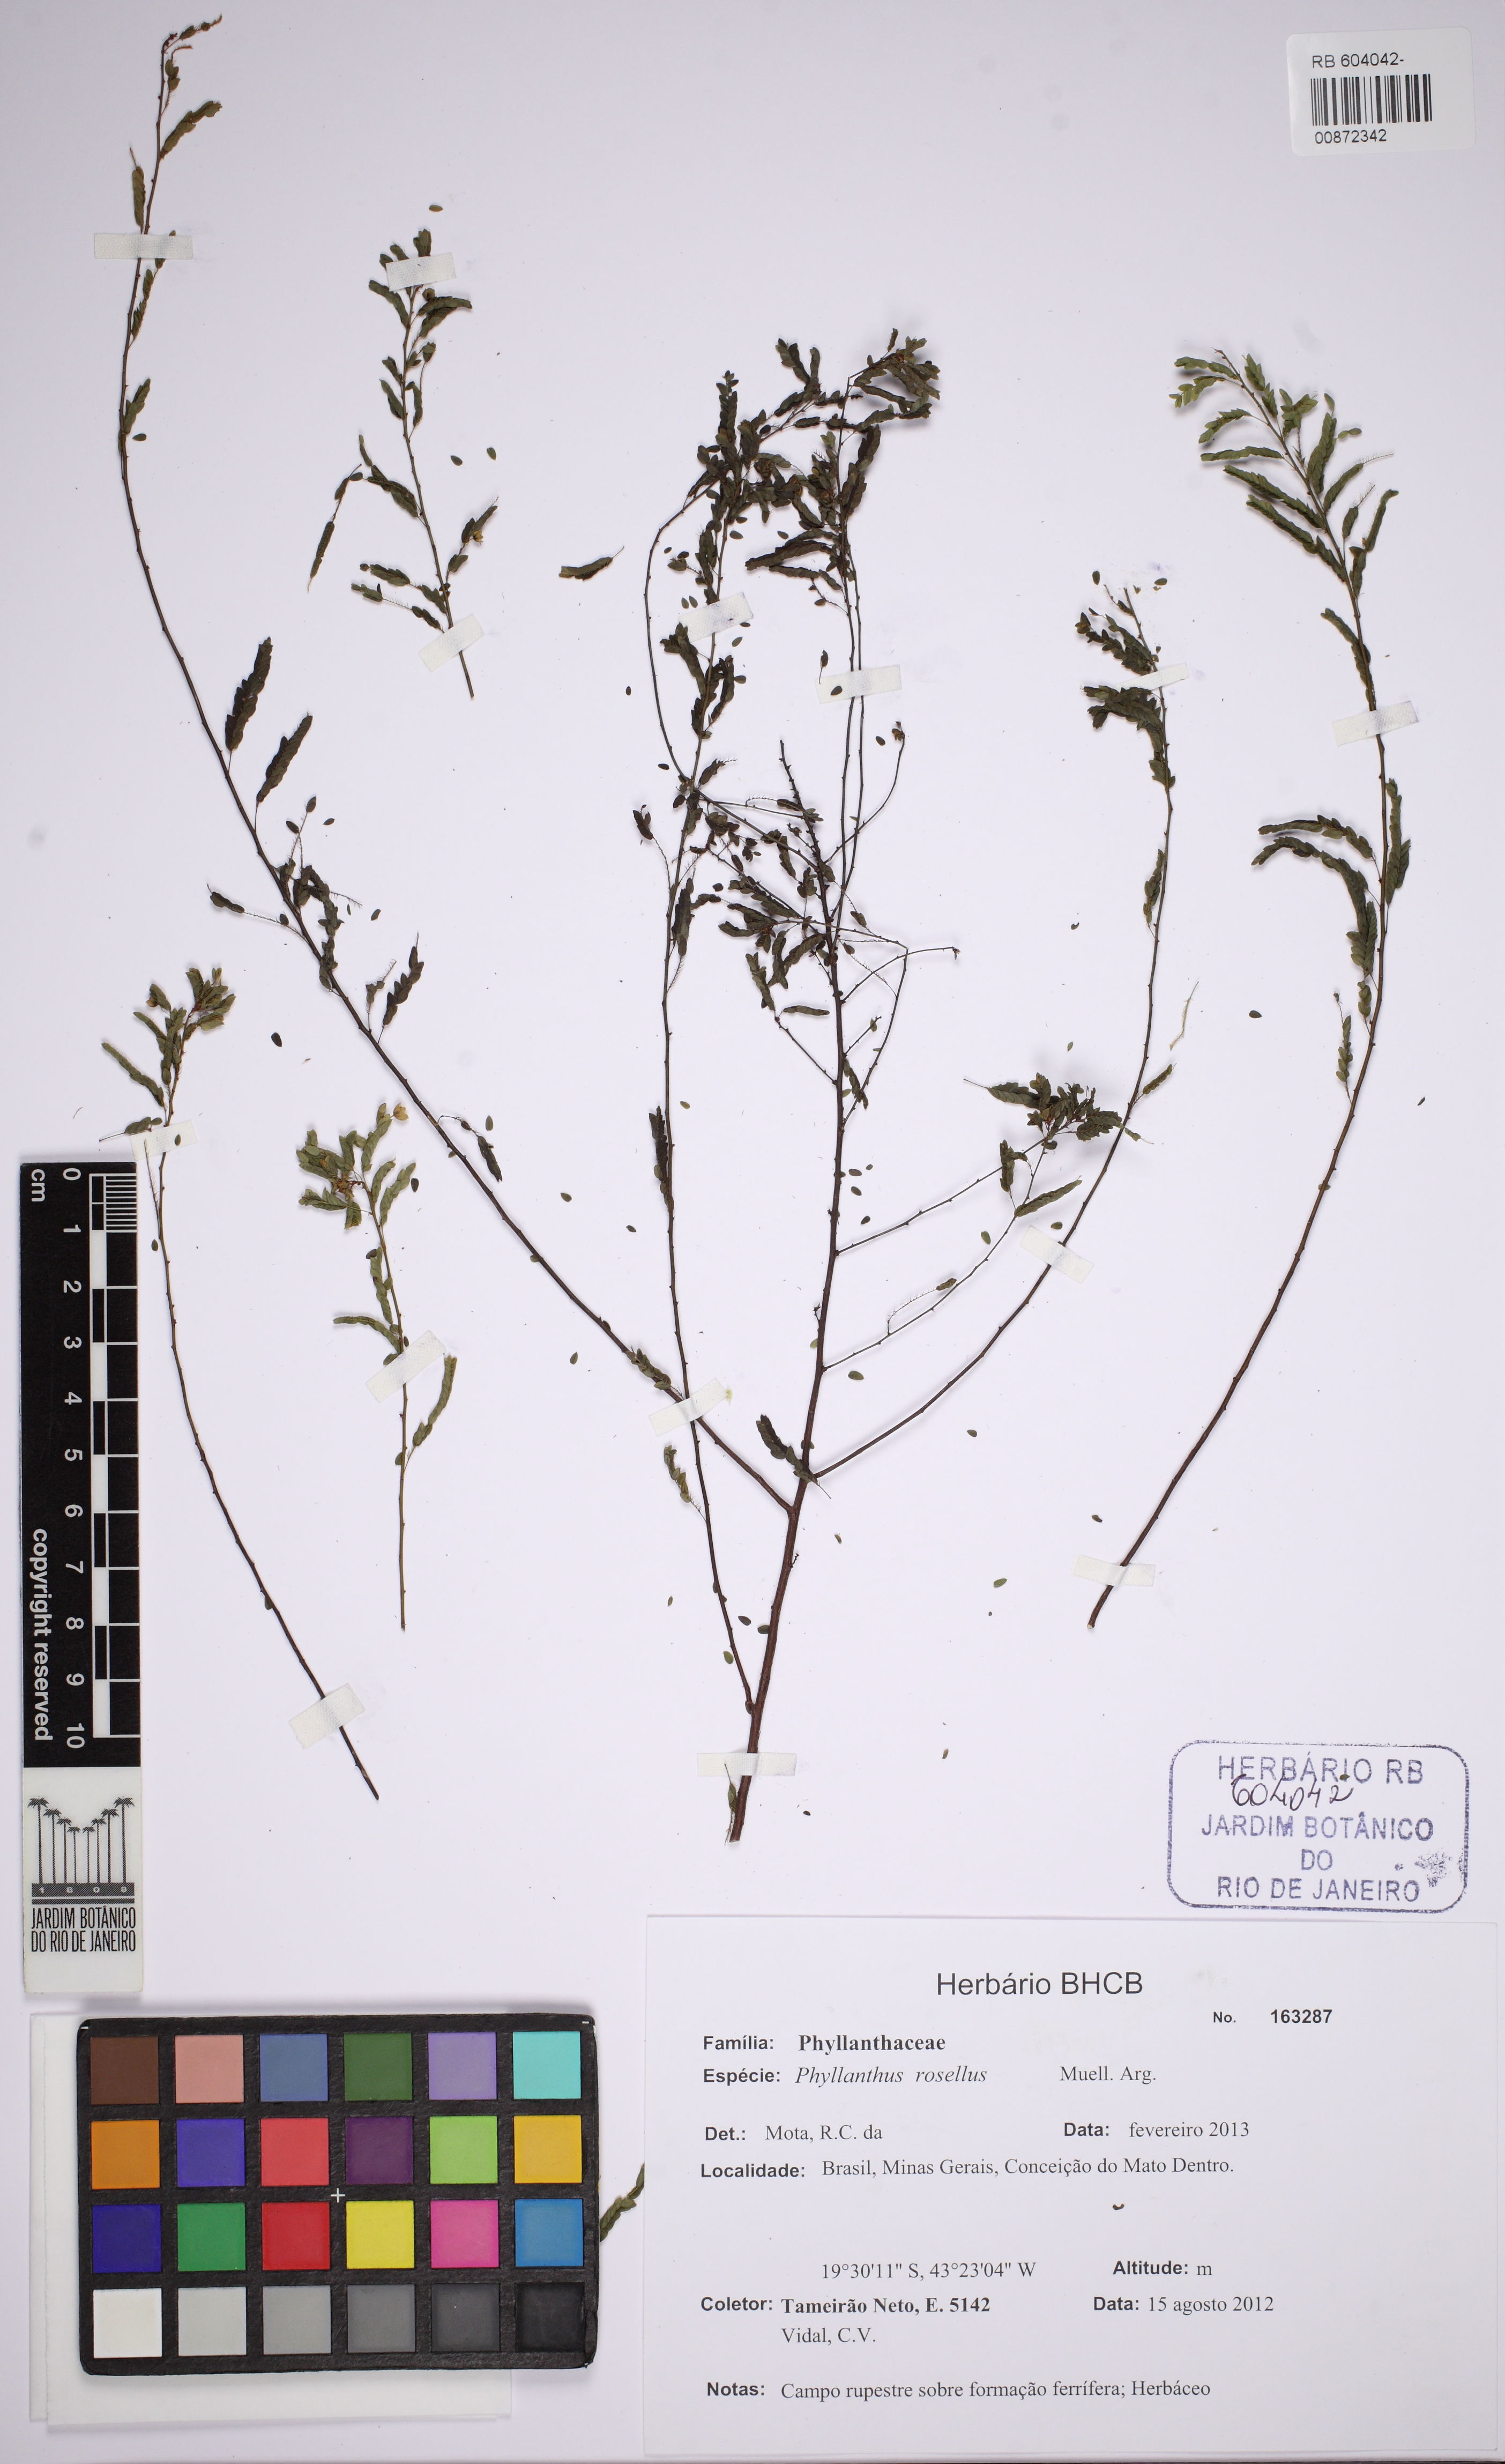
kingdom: Plantae
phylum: Tracheophyta
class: Magnoliopsida
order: Malpighiales
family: Phyllanthaceae
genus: Phyllanthus
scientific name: Phyllanthus niruri
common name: Niruri
